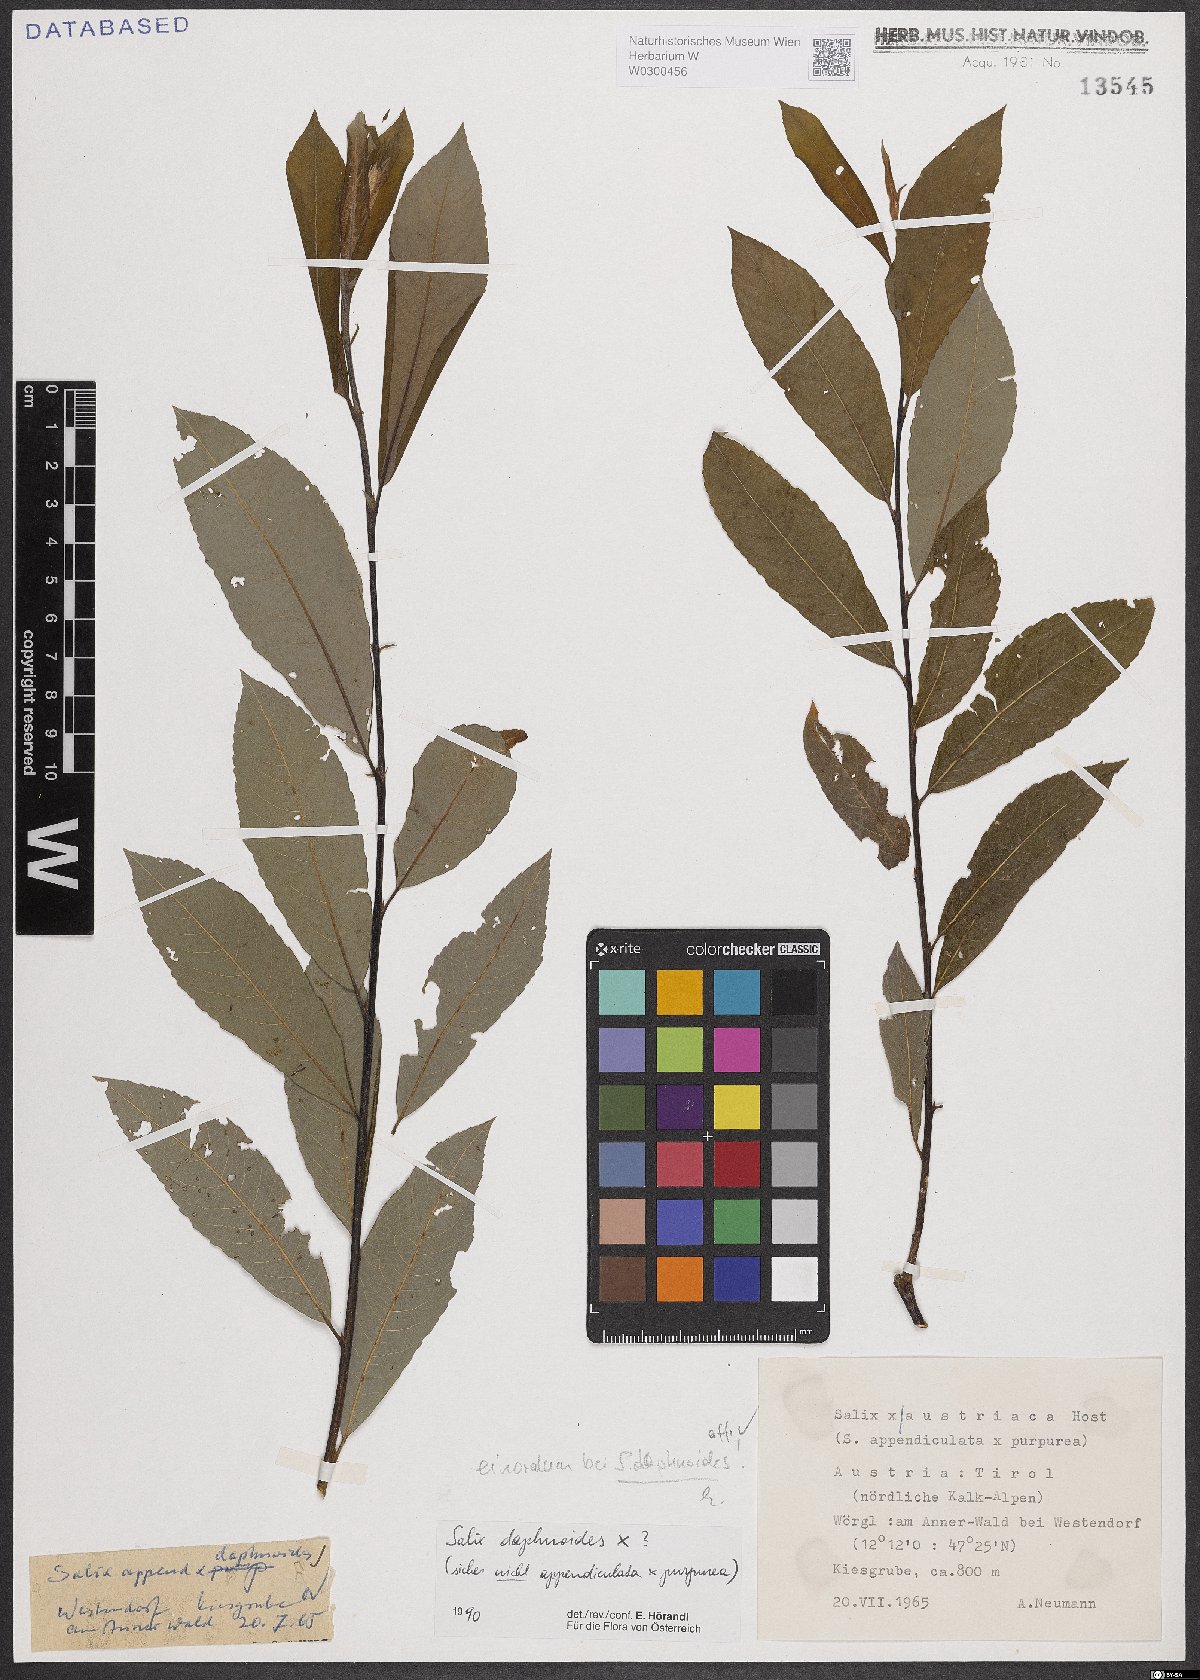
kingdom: Plantae
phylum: Tracheophyta
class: Magnoliopsida
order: Malpighiales
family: Salicaceae
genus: Salix
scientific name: Salix daphnoides
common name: European violet-willow
